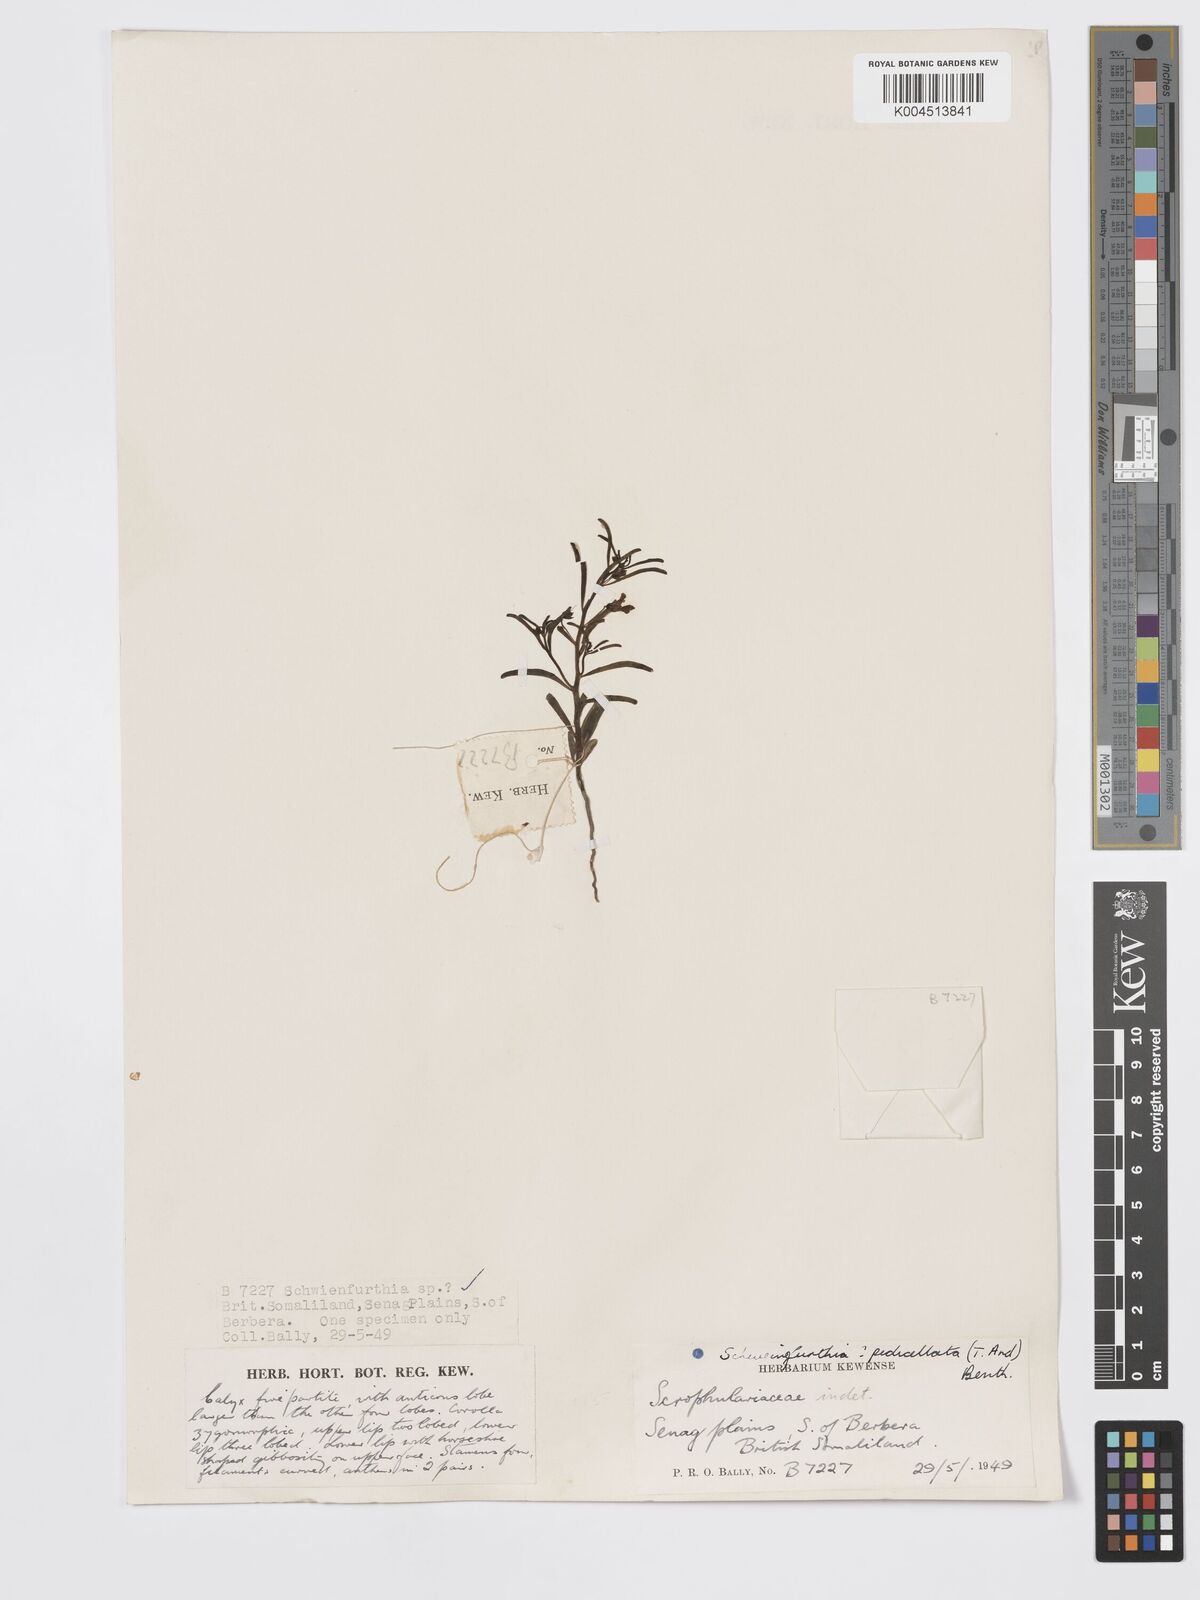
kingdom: Plantae
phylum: Tracheophyta
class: Magnoliopsida
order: Lamiales
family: Plantaginaceae
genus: Schweinfurthia
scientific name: Schweinfurthia pedicellata
